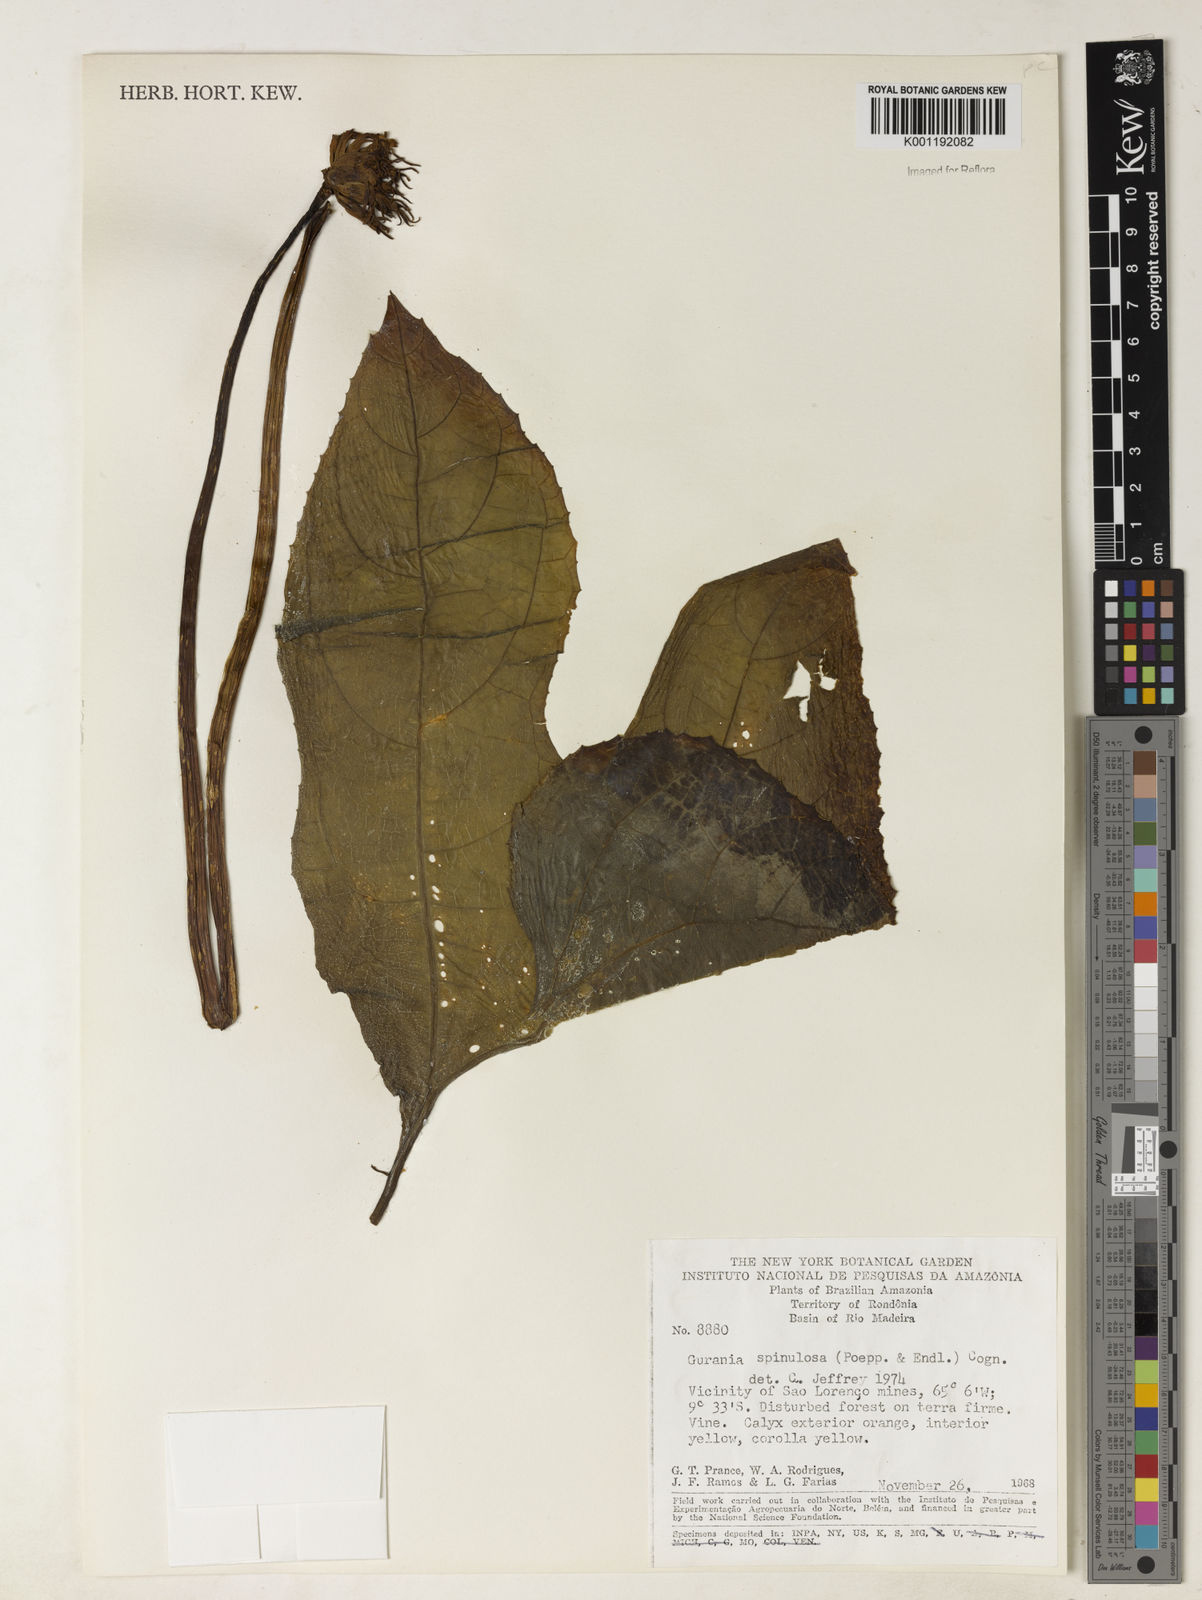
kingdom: Plantae
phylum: Tracheophyta
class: Magnoliopsida
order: Cucurbitales
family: Cucurbitaceae
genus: Gurania
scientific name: Gurania lobata
